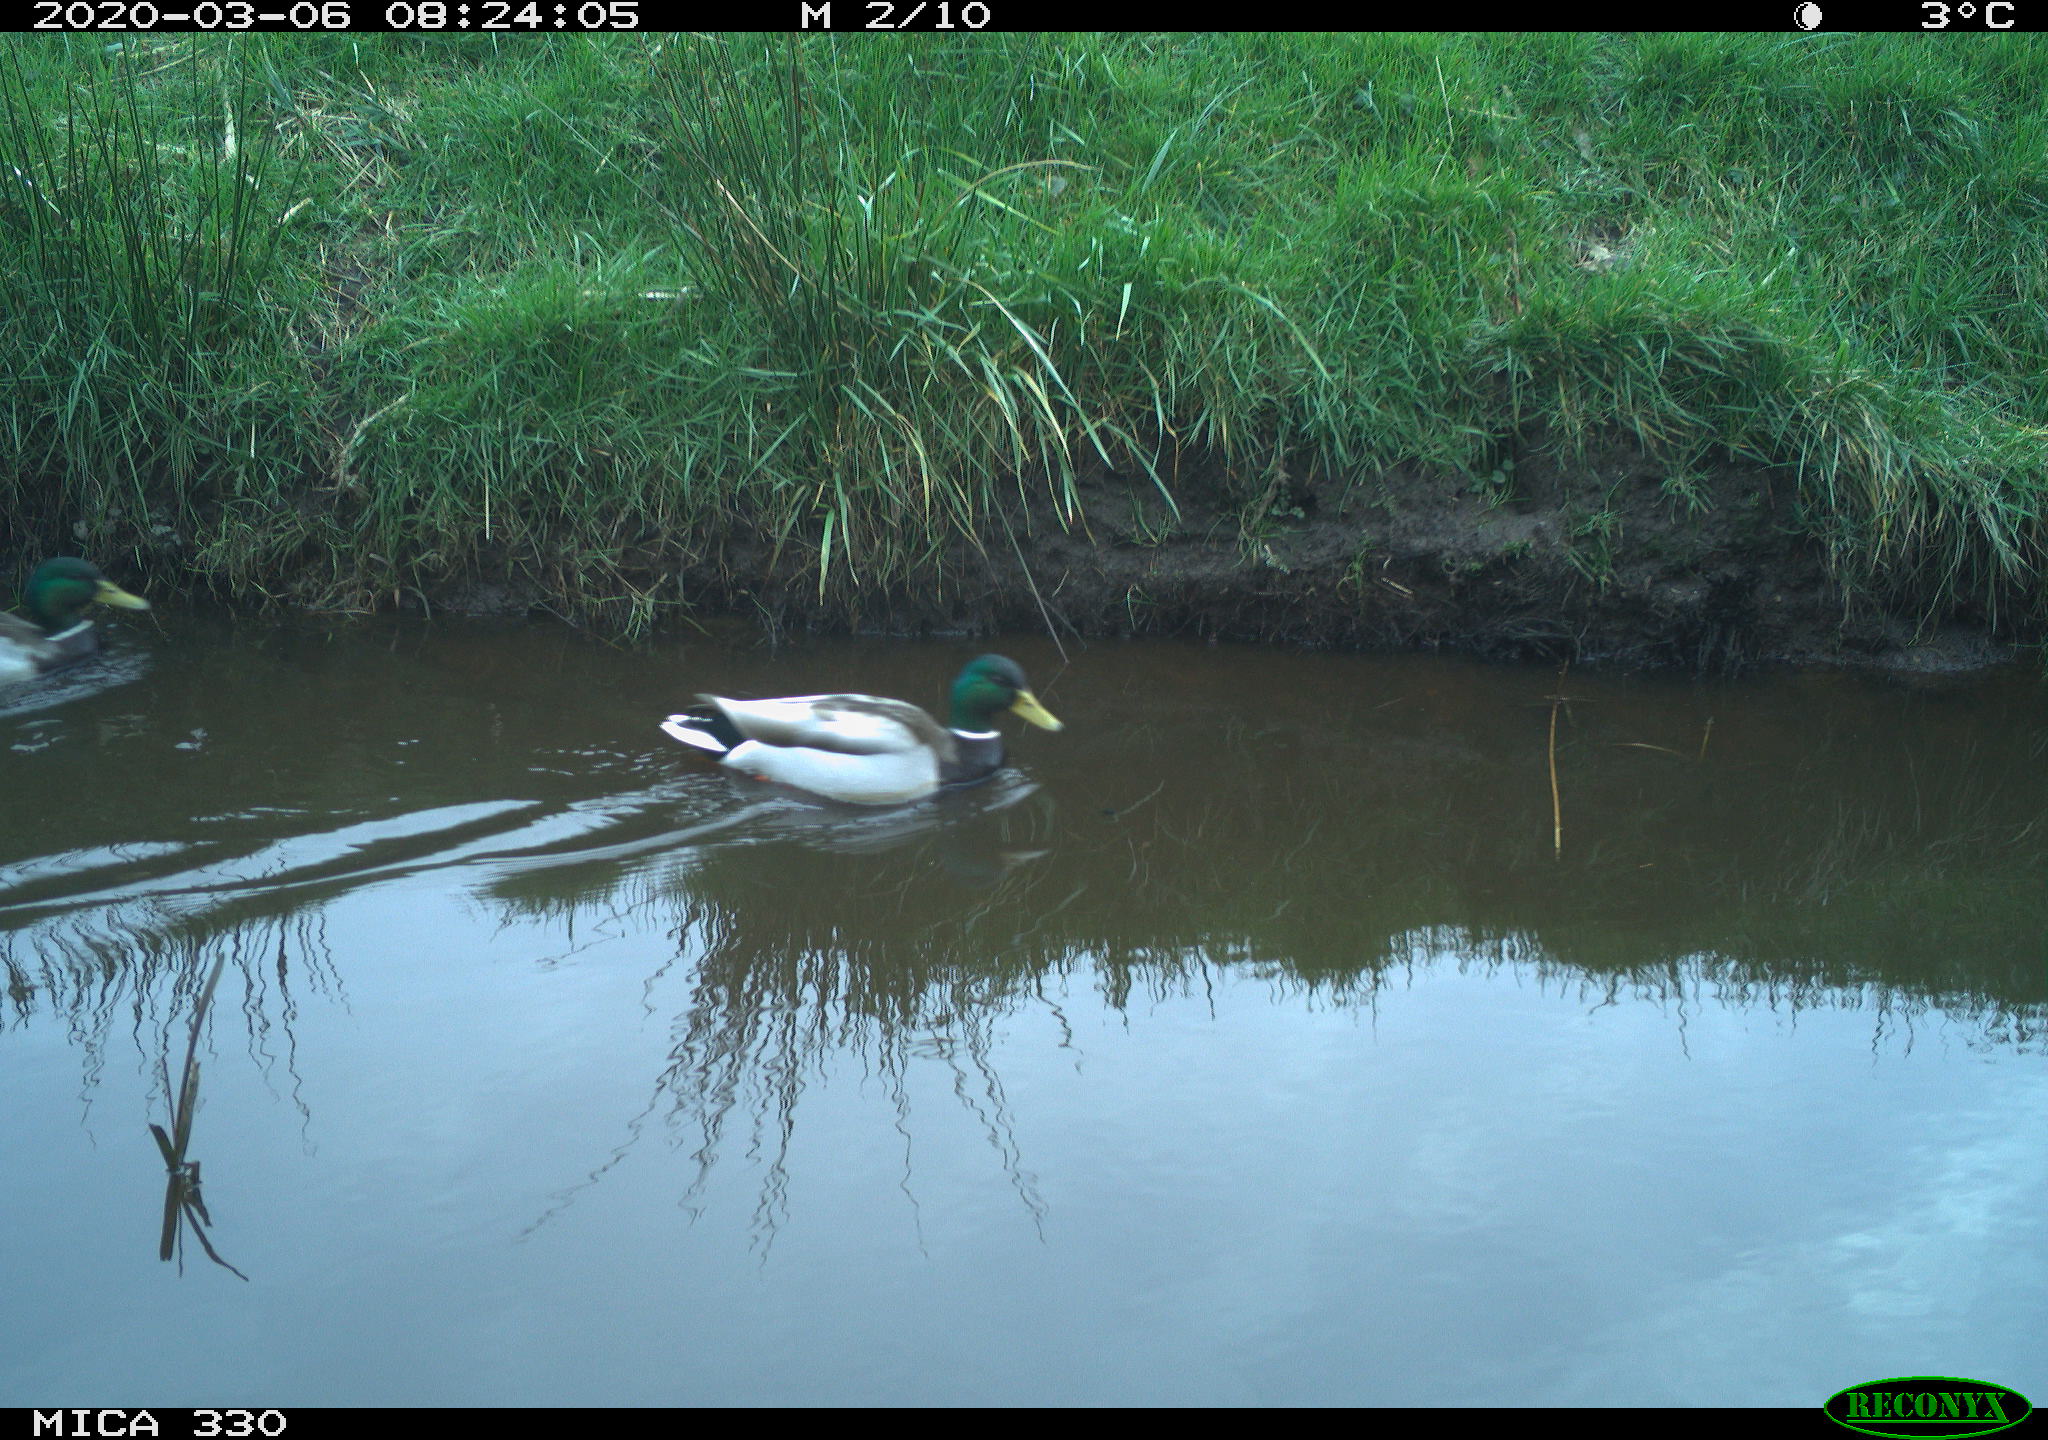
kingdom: Animalia
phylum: Chordata
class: Aves
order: Anseriformes
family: Anatidae
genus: Anas
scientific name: Anas platyrhynchos
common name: Mallard
